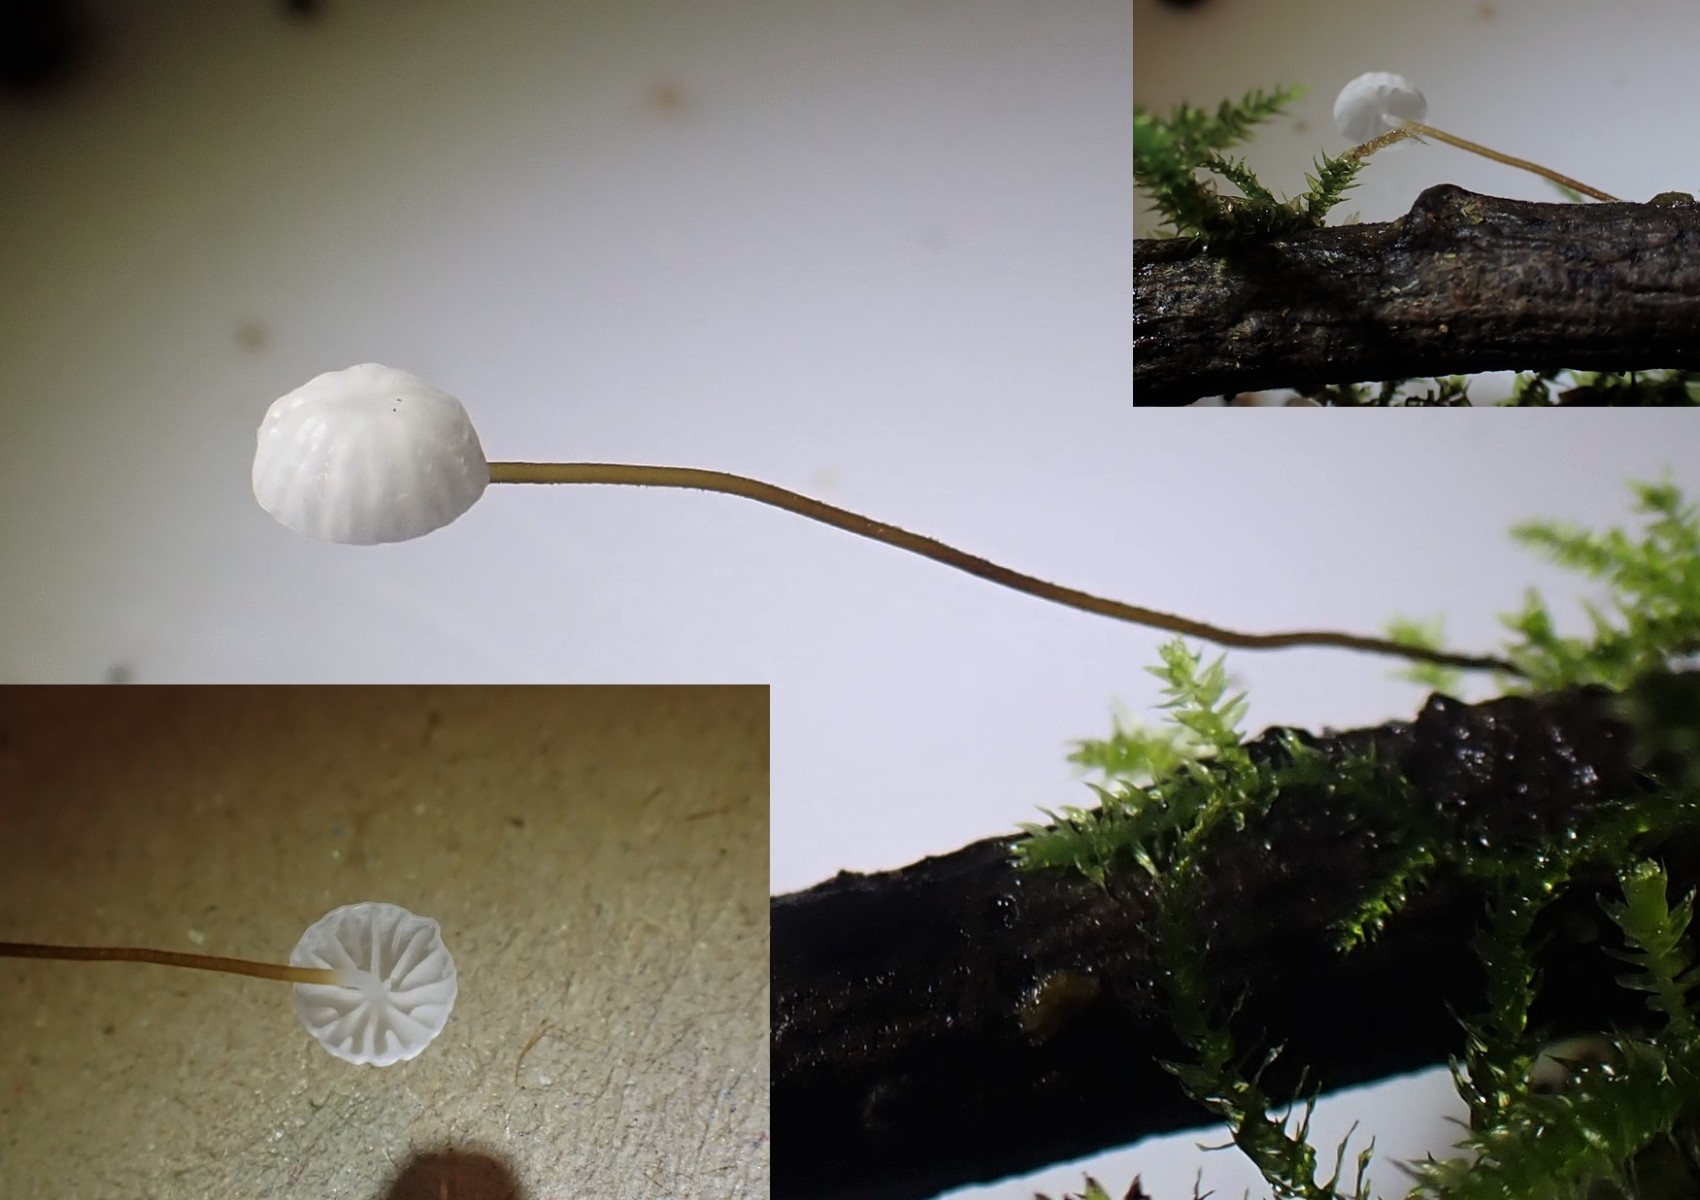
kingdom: Fungi
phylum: Basidiomycota
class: Agaricomycetes
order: Agaricales
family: Marasmiaceae
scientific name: Marasmiaceae
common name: bruskhatfamilien
